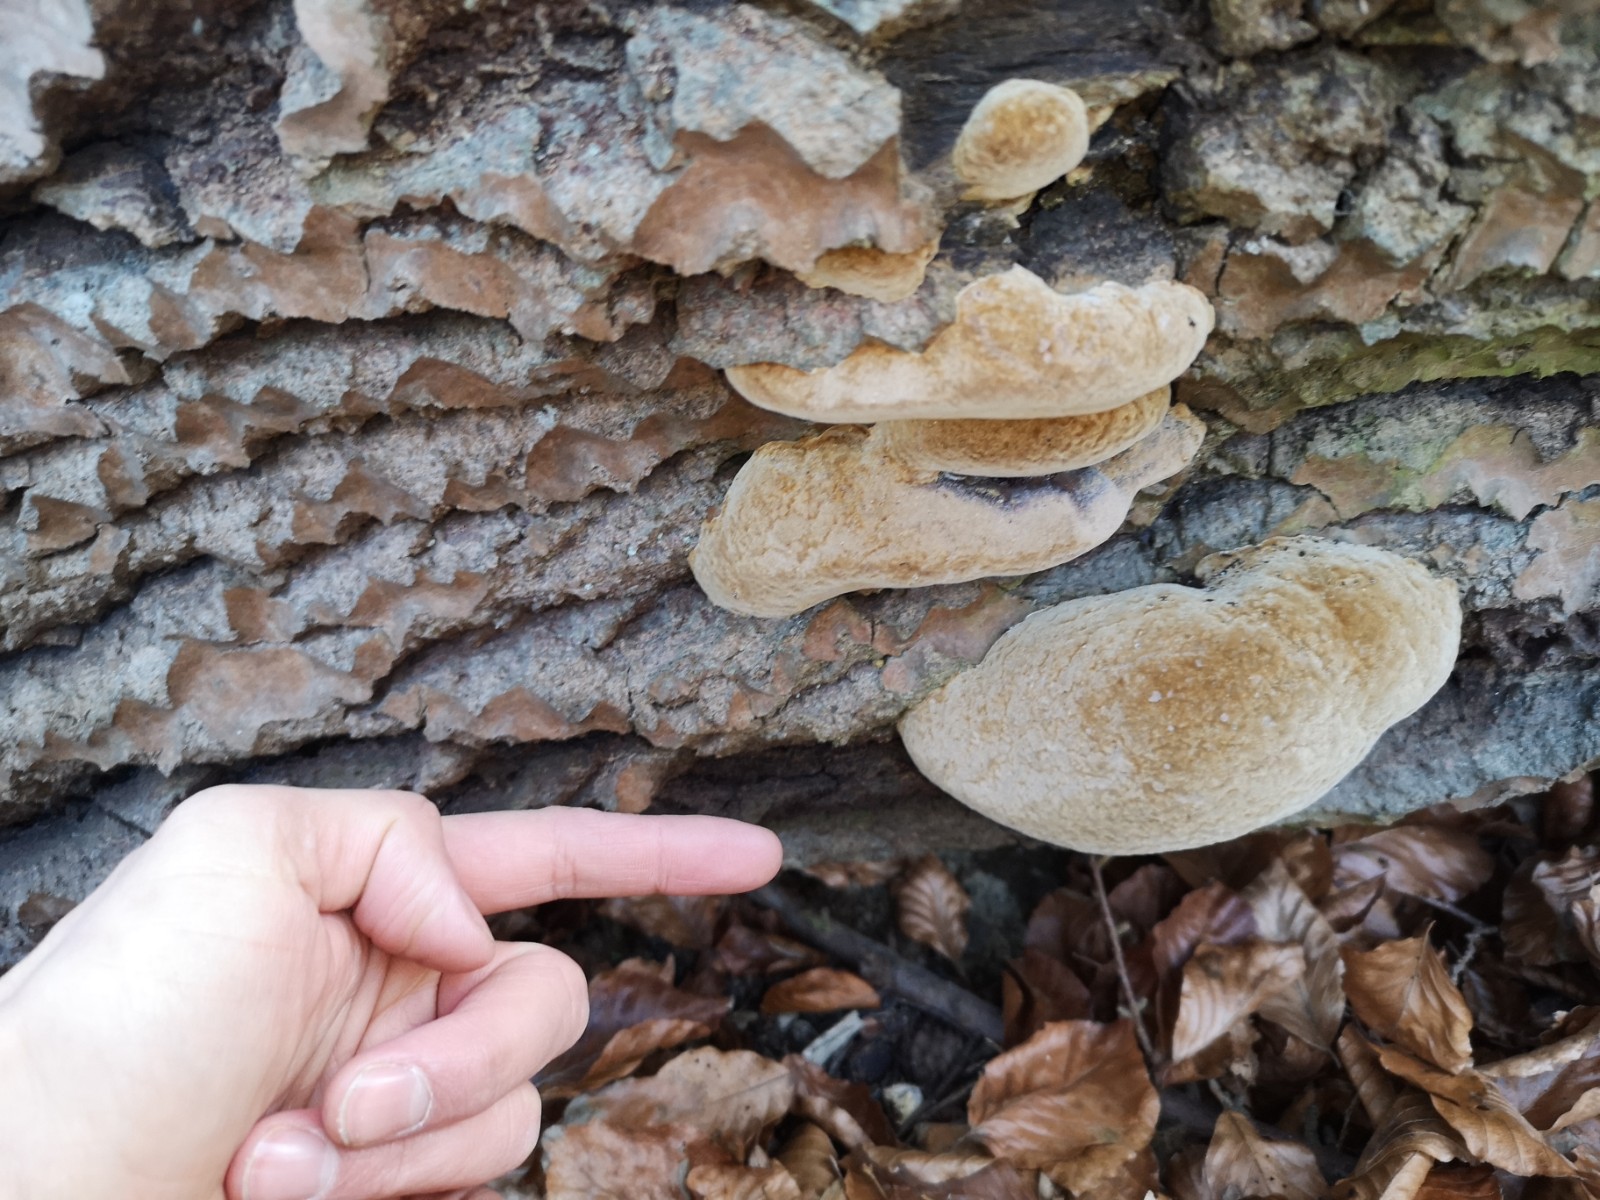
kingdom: Fungi
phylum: Basidiomycota
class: Agaricomycetes
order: Hymenochaetales
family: Hymenochaetaceae
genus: Phellinus
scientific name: Phellinus populicola
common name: poppel-ildporesvamp
